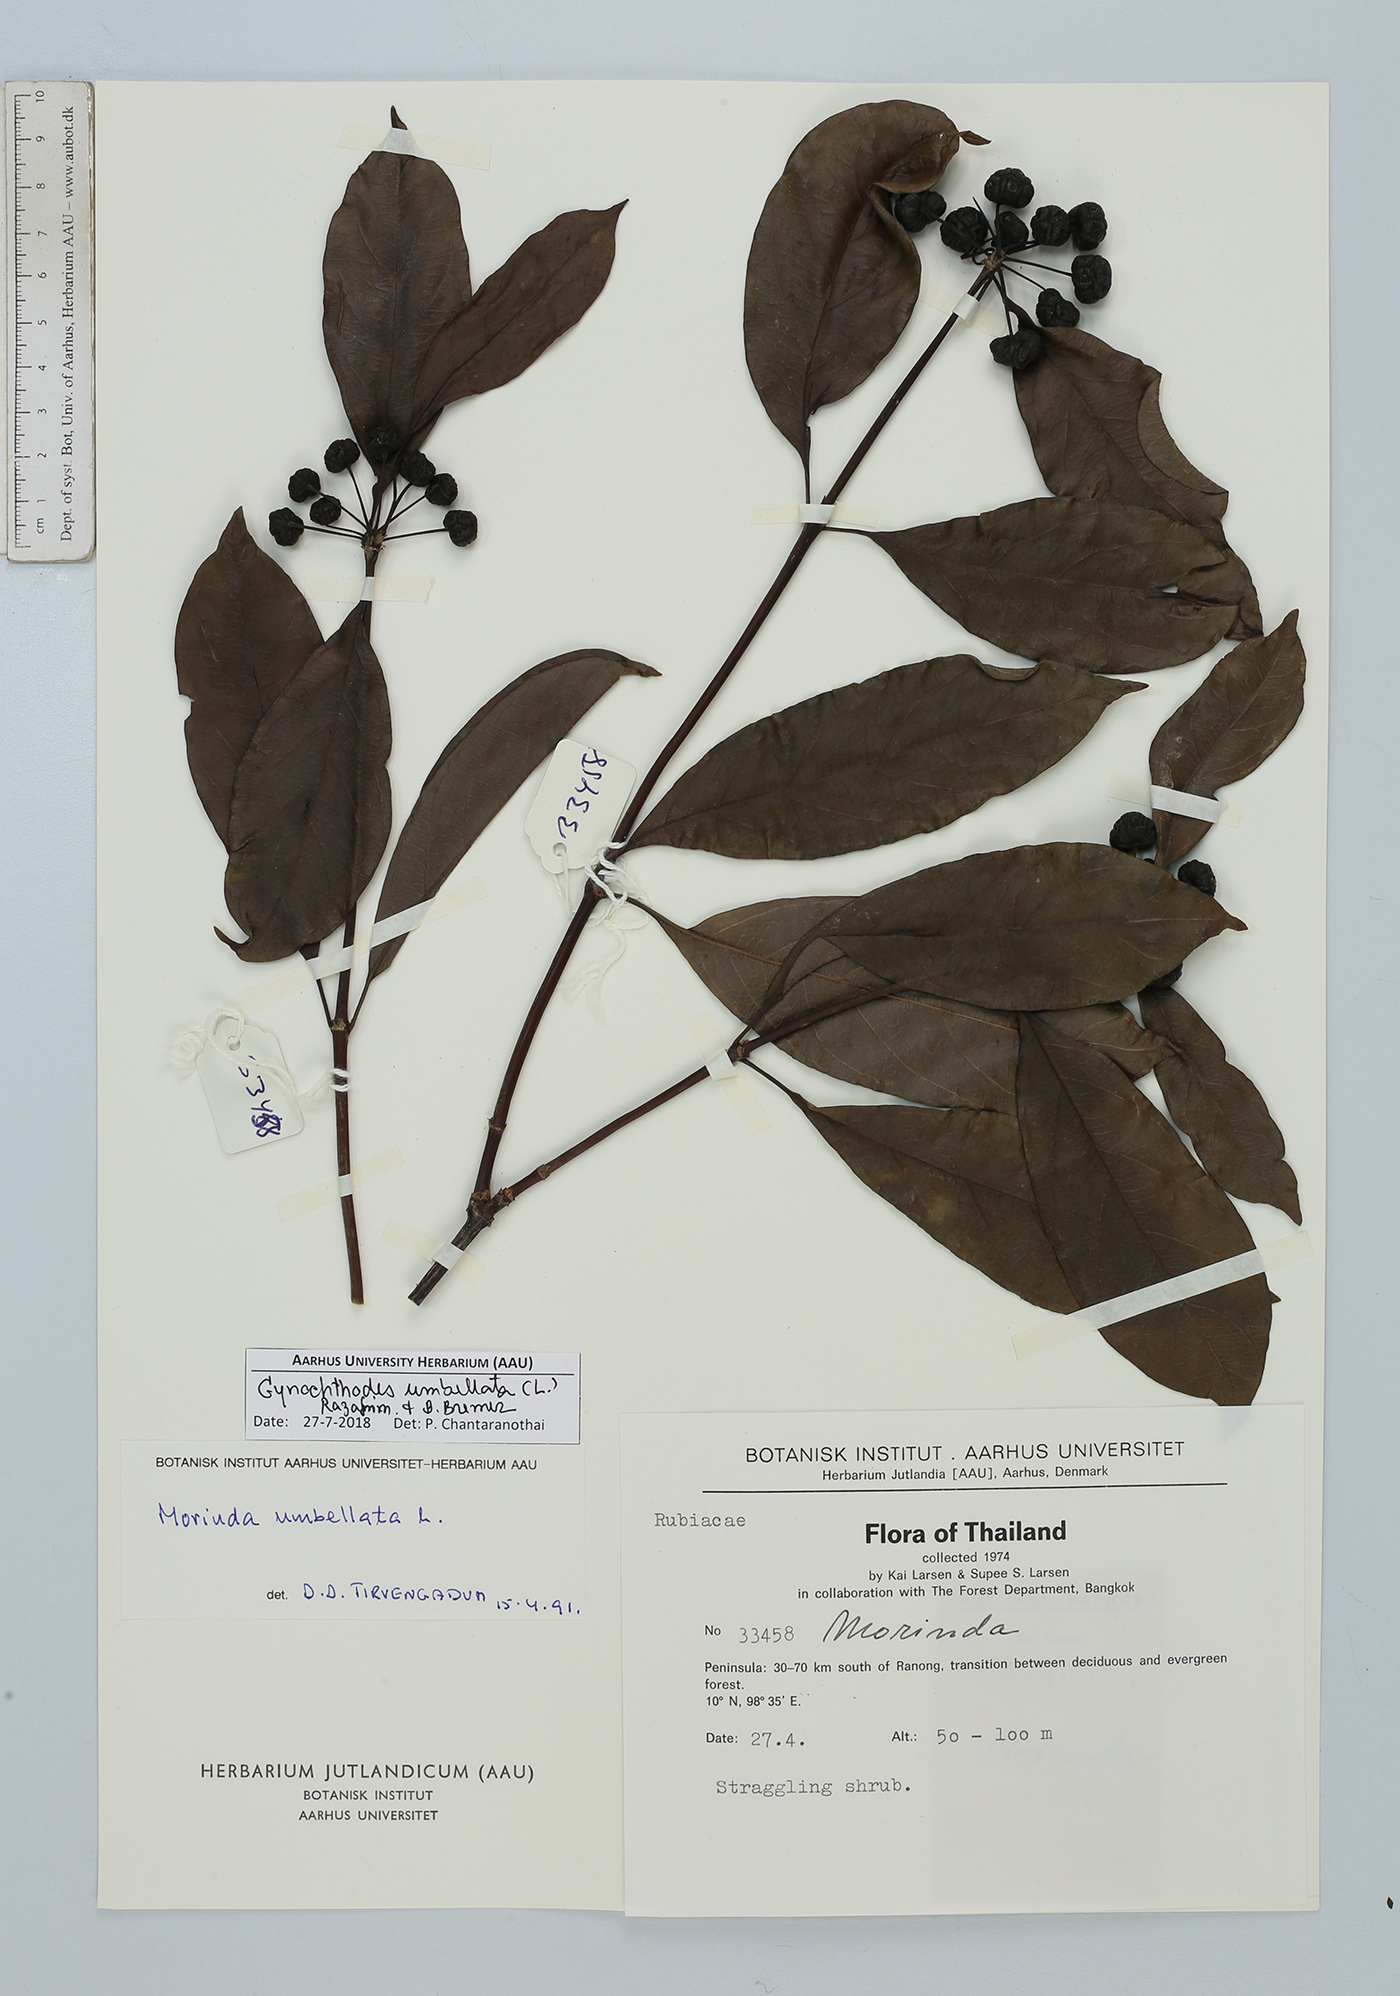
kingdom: Plantae
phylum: Tracheophyta
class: Magnoliopsida
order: Gentianales
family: Rubiaceae
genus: Gynochthodes
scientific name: Gynochthodes umbellata
